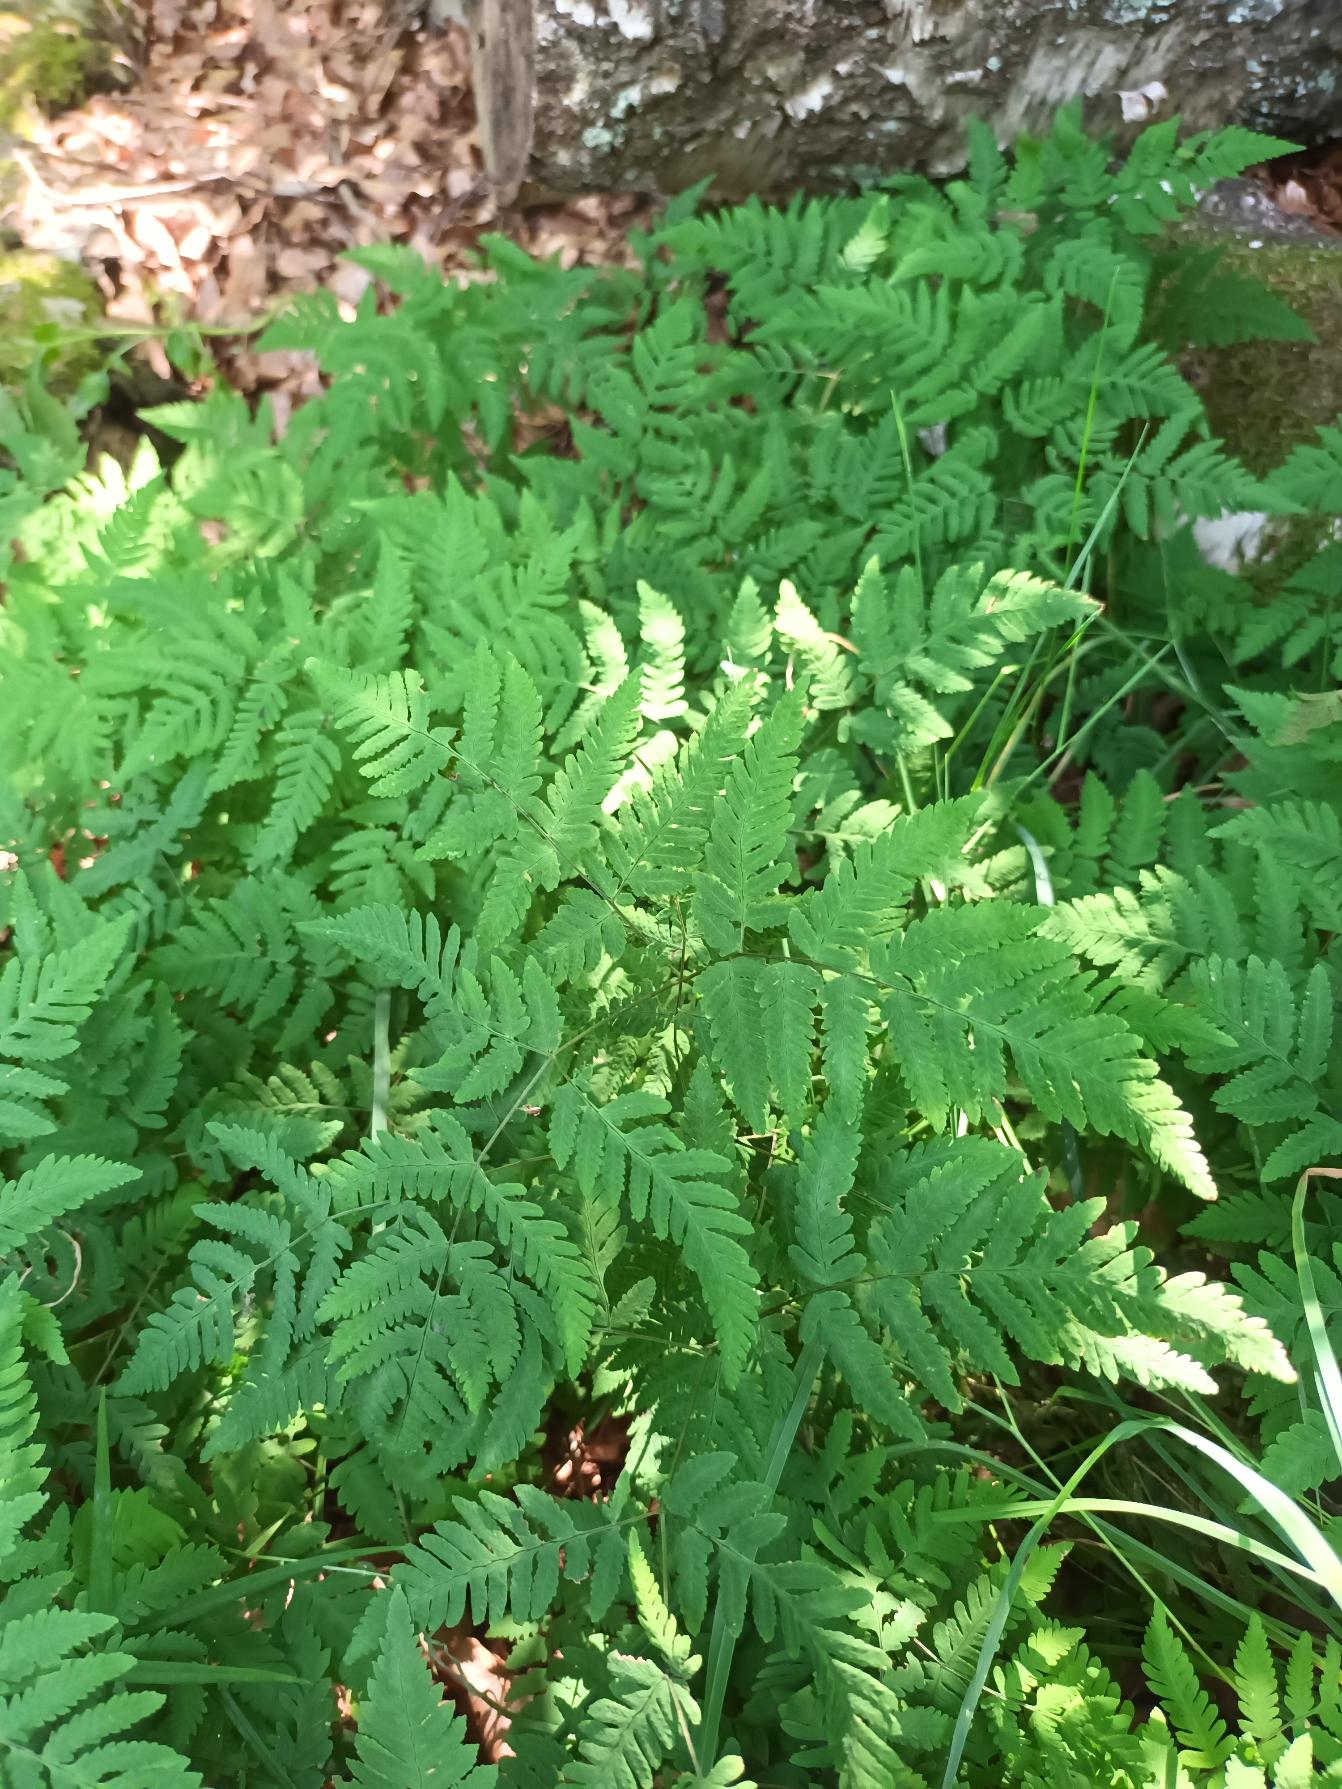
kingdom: Plantae
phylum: Tracheophyta
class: Polypodiopsida
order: Polypodiales
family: Cystopteridaceae
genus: Gymnocarpium
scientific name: Gymnocarpium dryopteris
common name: Tredelt egebregne
